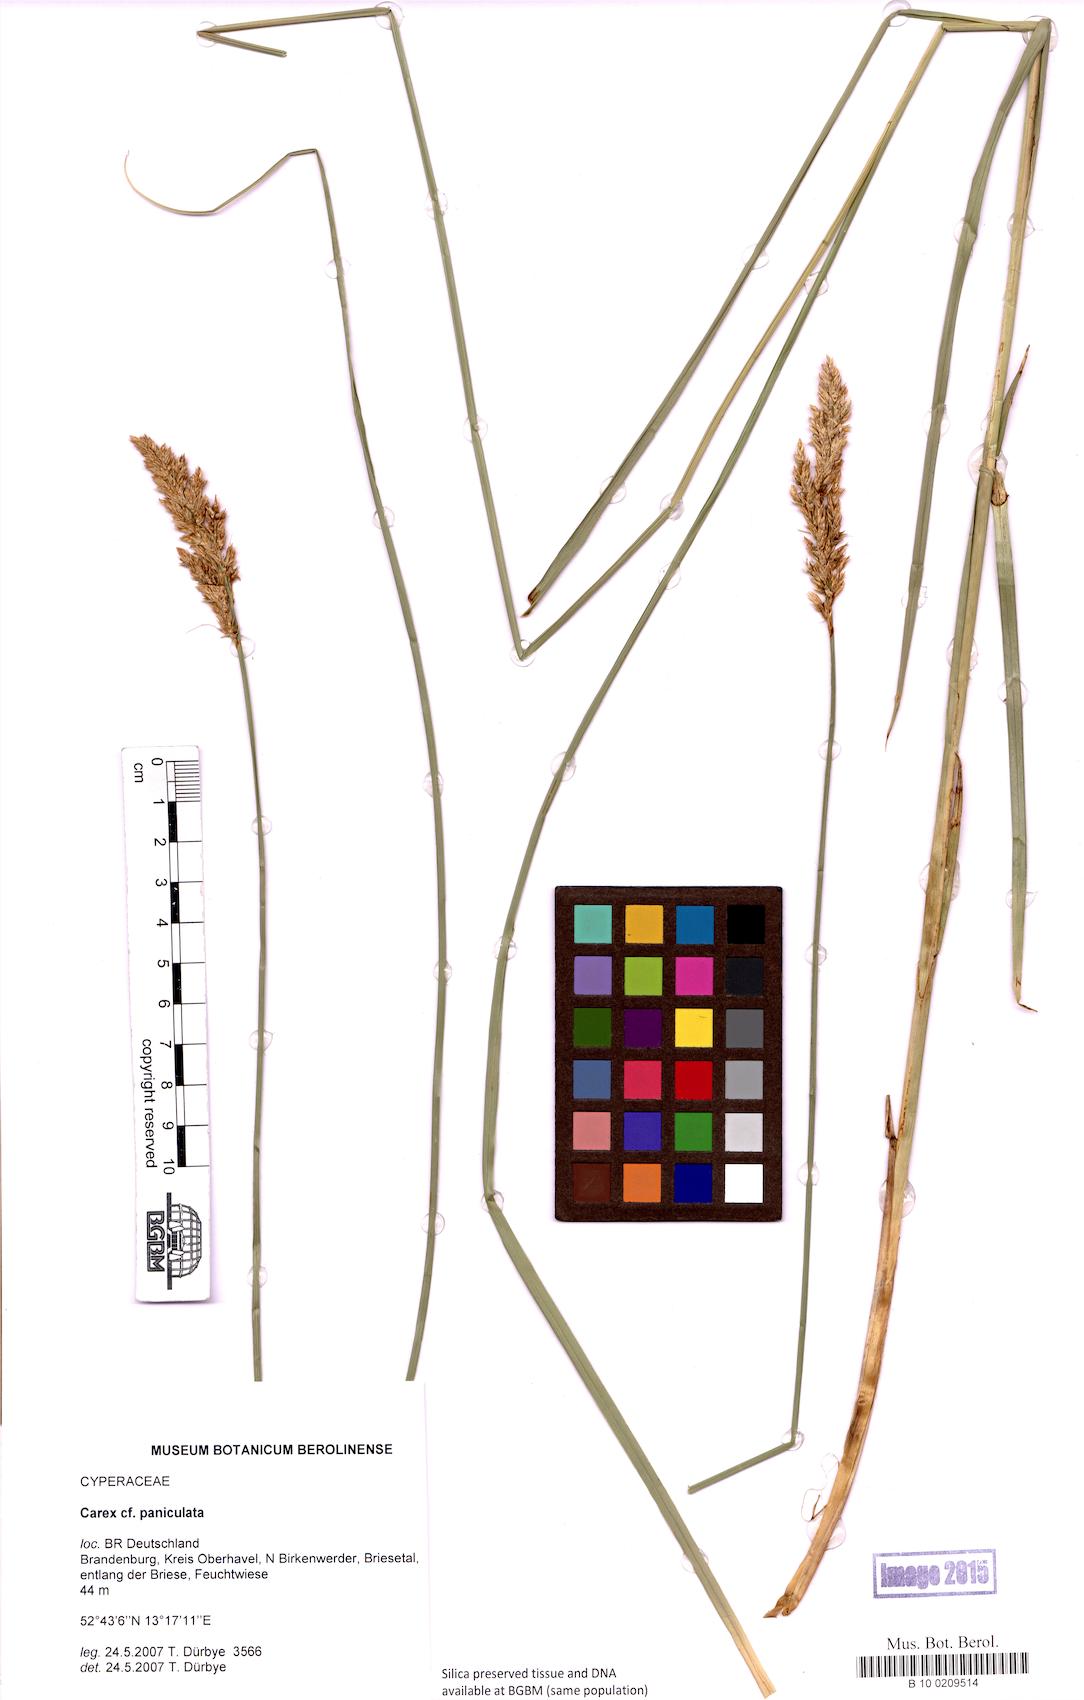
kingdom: Plantae
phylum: Tracheophyta
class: Liliopsida
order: Poales
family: Cyperaceae
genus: Carex
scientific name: Carex paniculata
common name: Greater tussock-sedge
